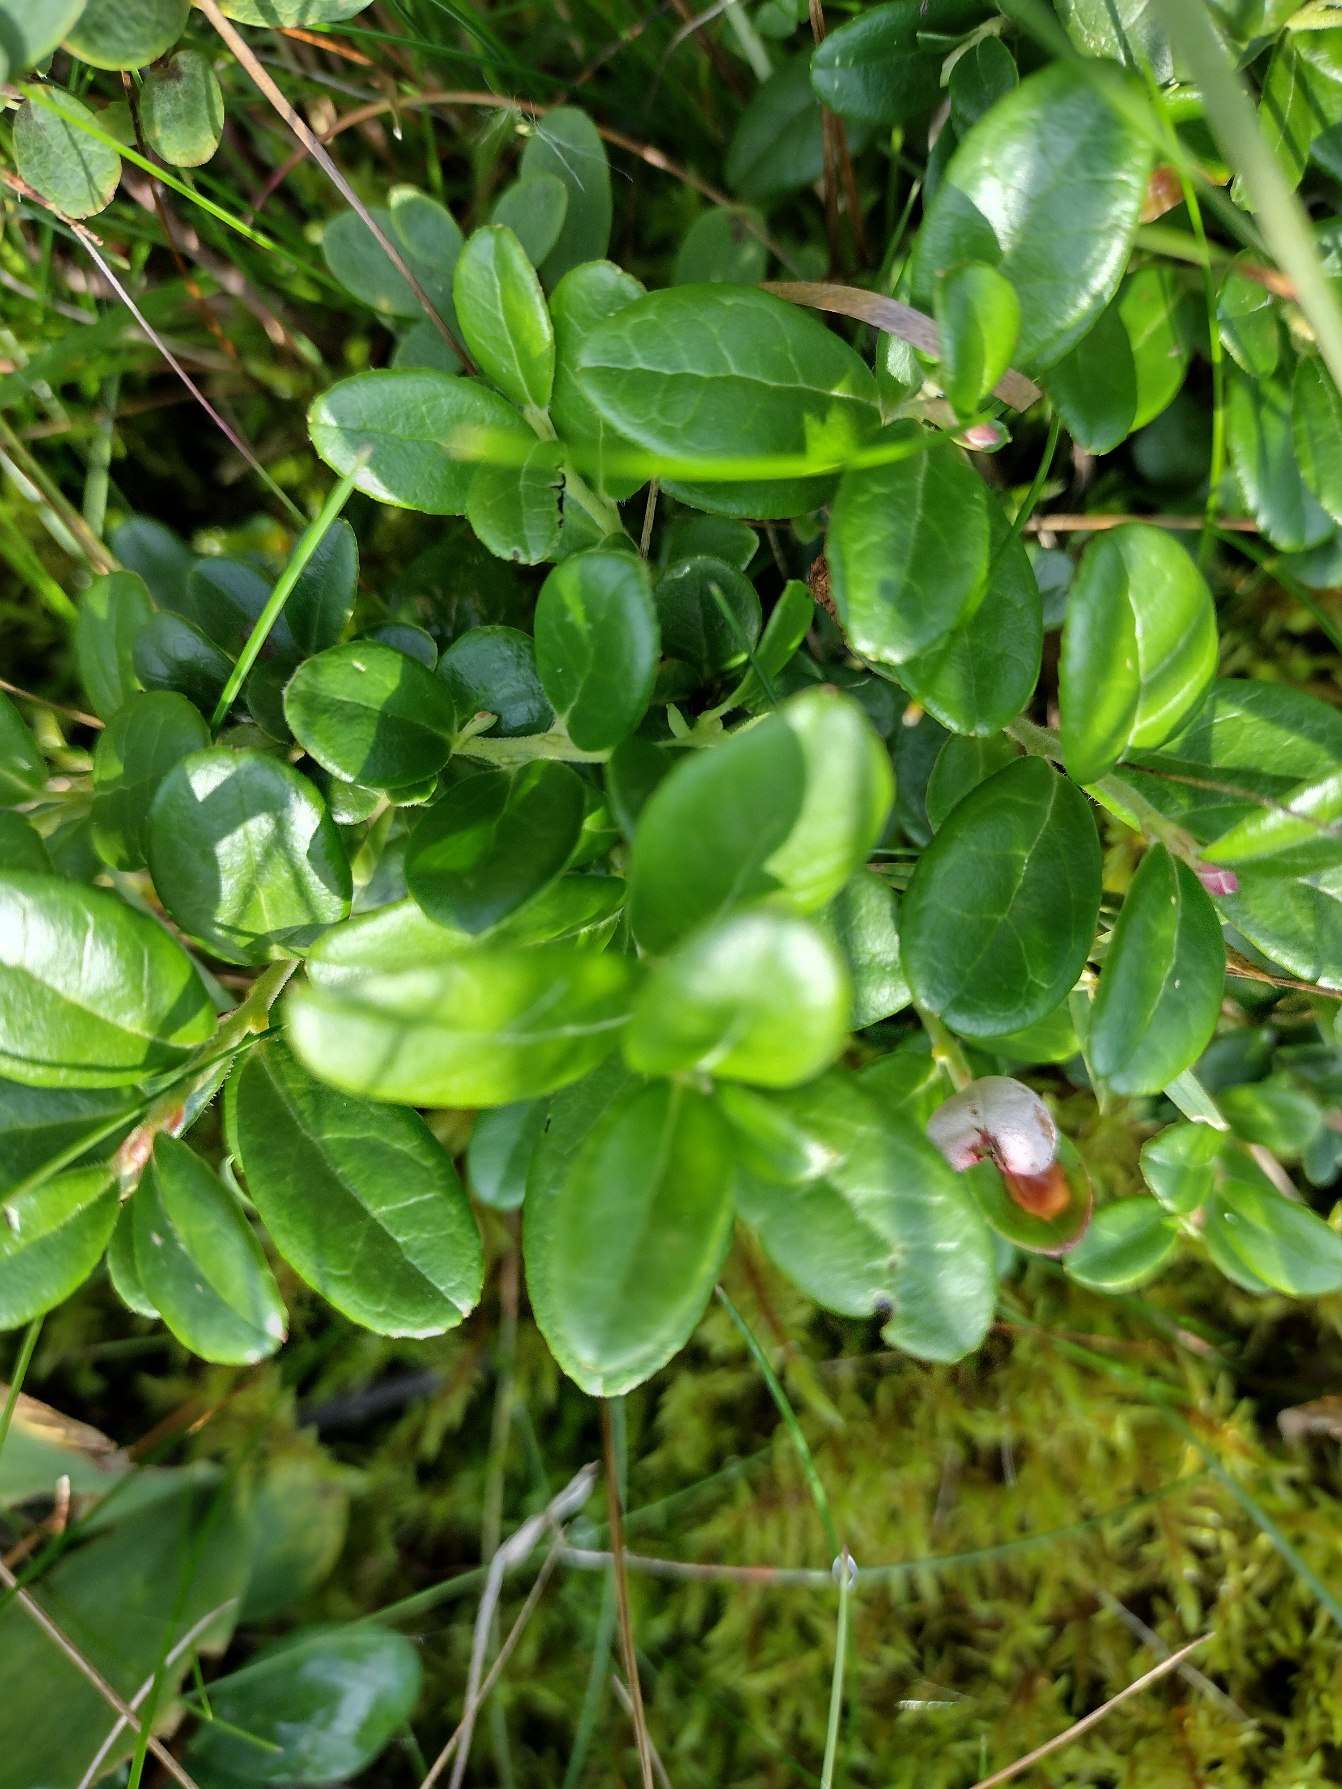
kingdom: Plantae
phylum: Tracheophyta
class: Magnoliopsida
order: Ericales
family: Ericaceae
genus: Vaccinium
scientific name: Vaccinium vitis-idaea
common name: Tyttebær
